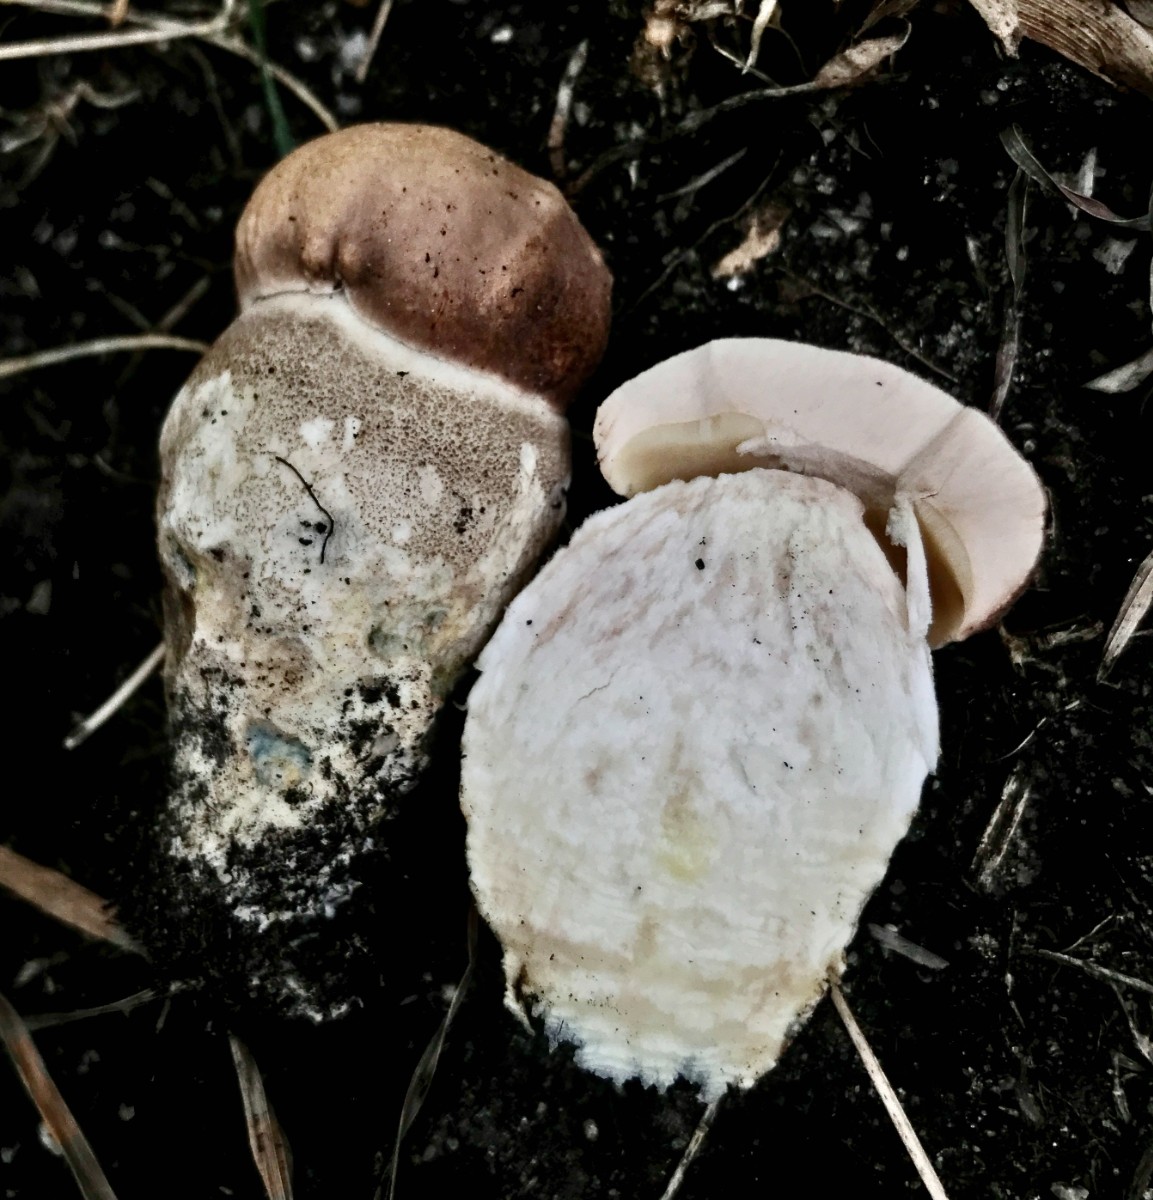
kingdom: Fungi
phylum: Basidiomycota
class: Agaricomycetes
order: Boletales
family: Boletaceae
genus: Leccinum
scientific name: Leccinum duriusculum
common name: poppel-skælrørhat
